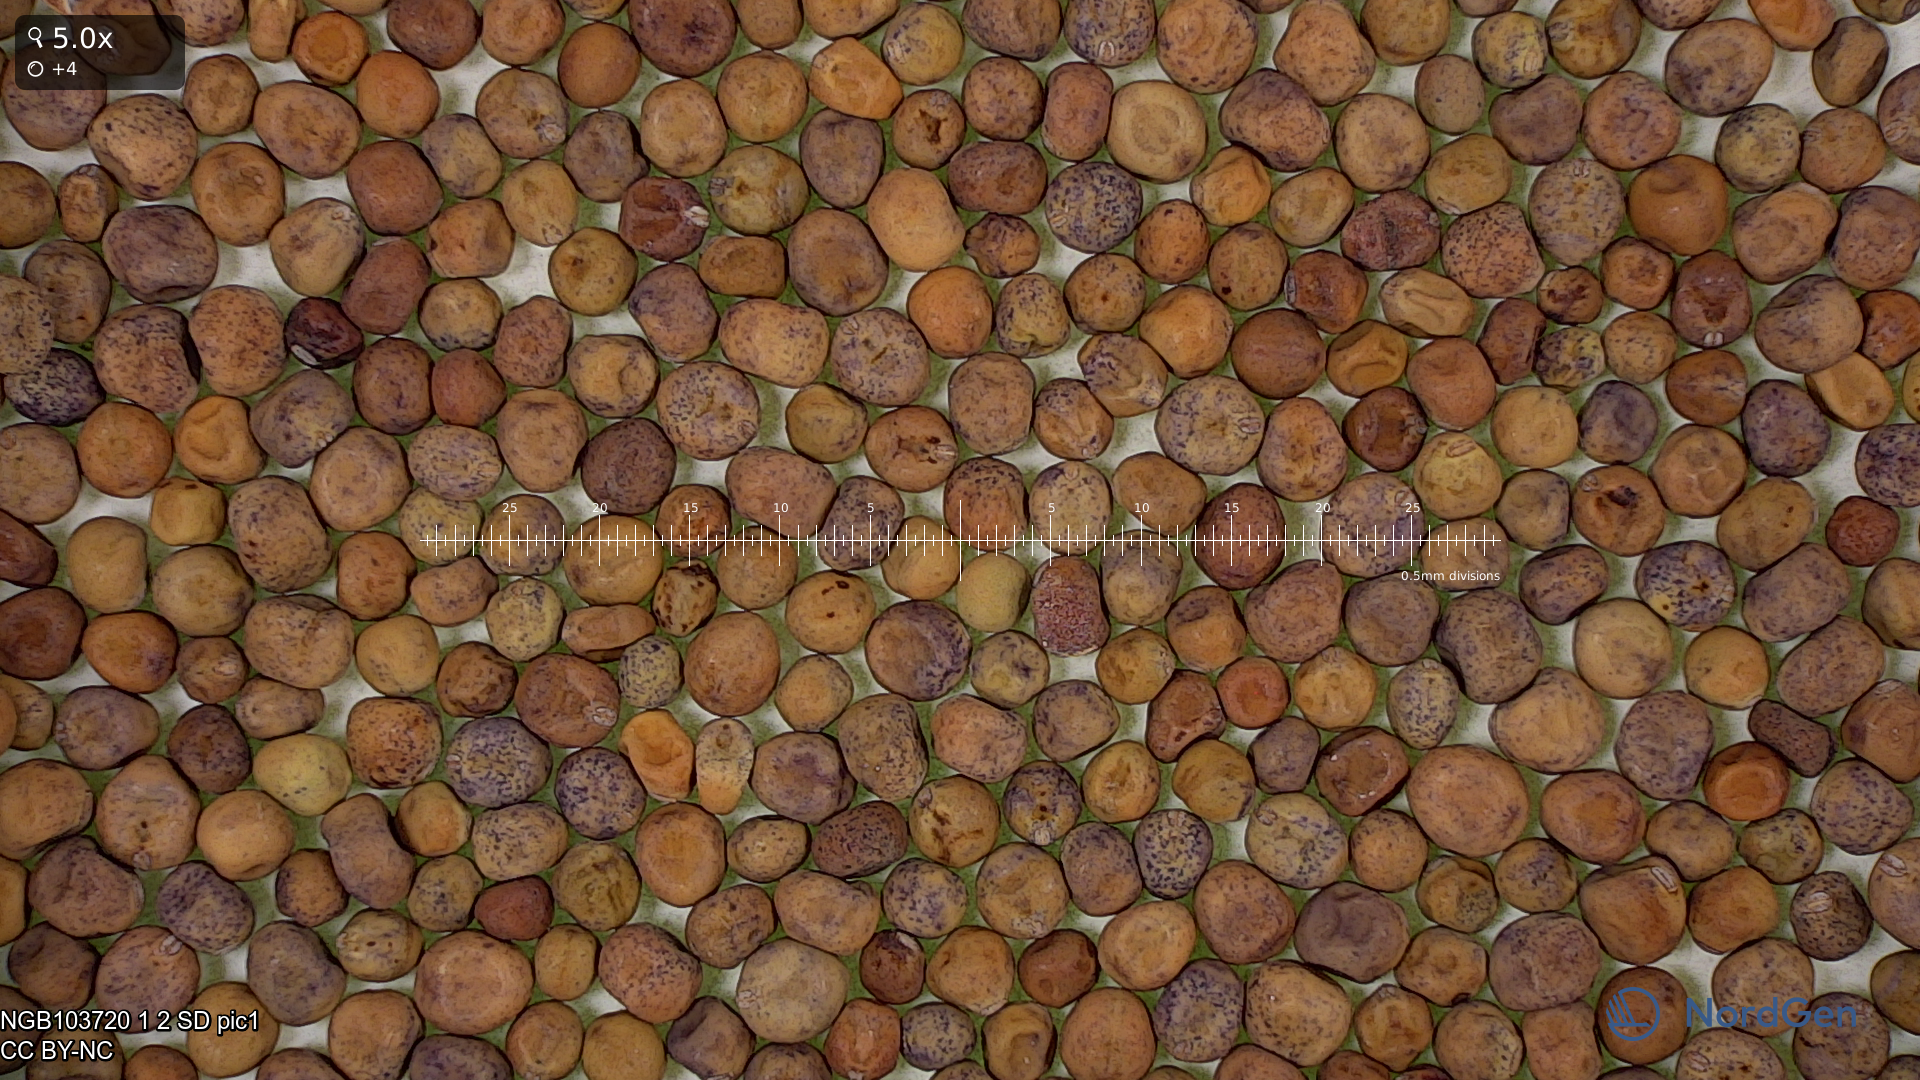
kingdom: Plantae
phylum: Tracheophyta
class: Magnoliopsida
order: Fabales
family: Fabaceae
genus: Lathyrus
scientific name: Lathyrus oleraceus
